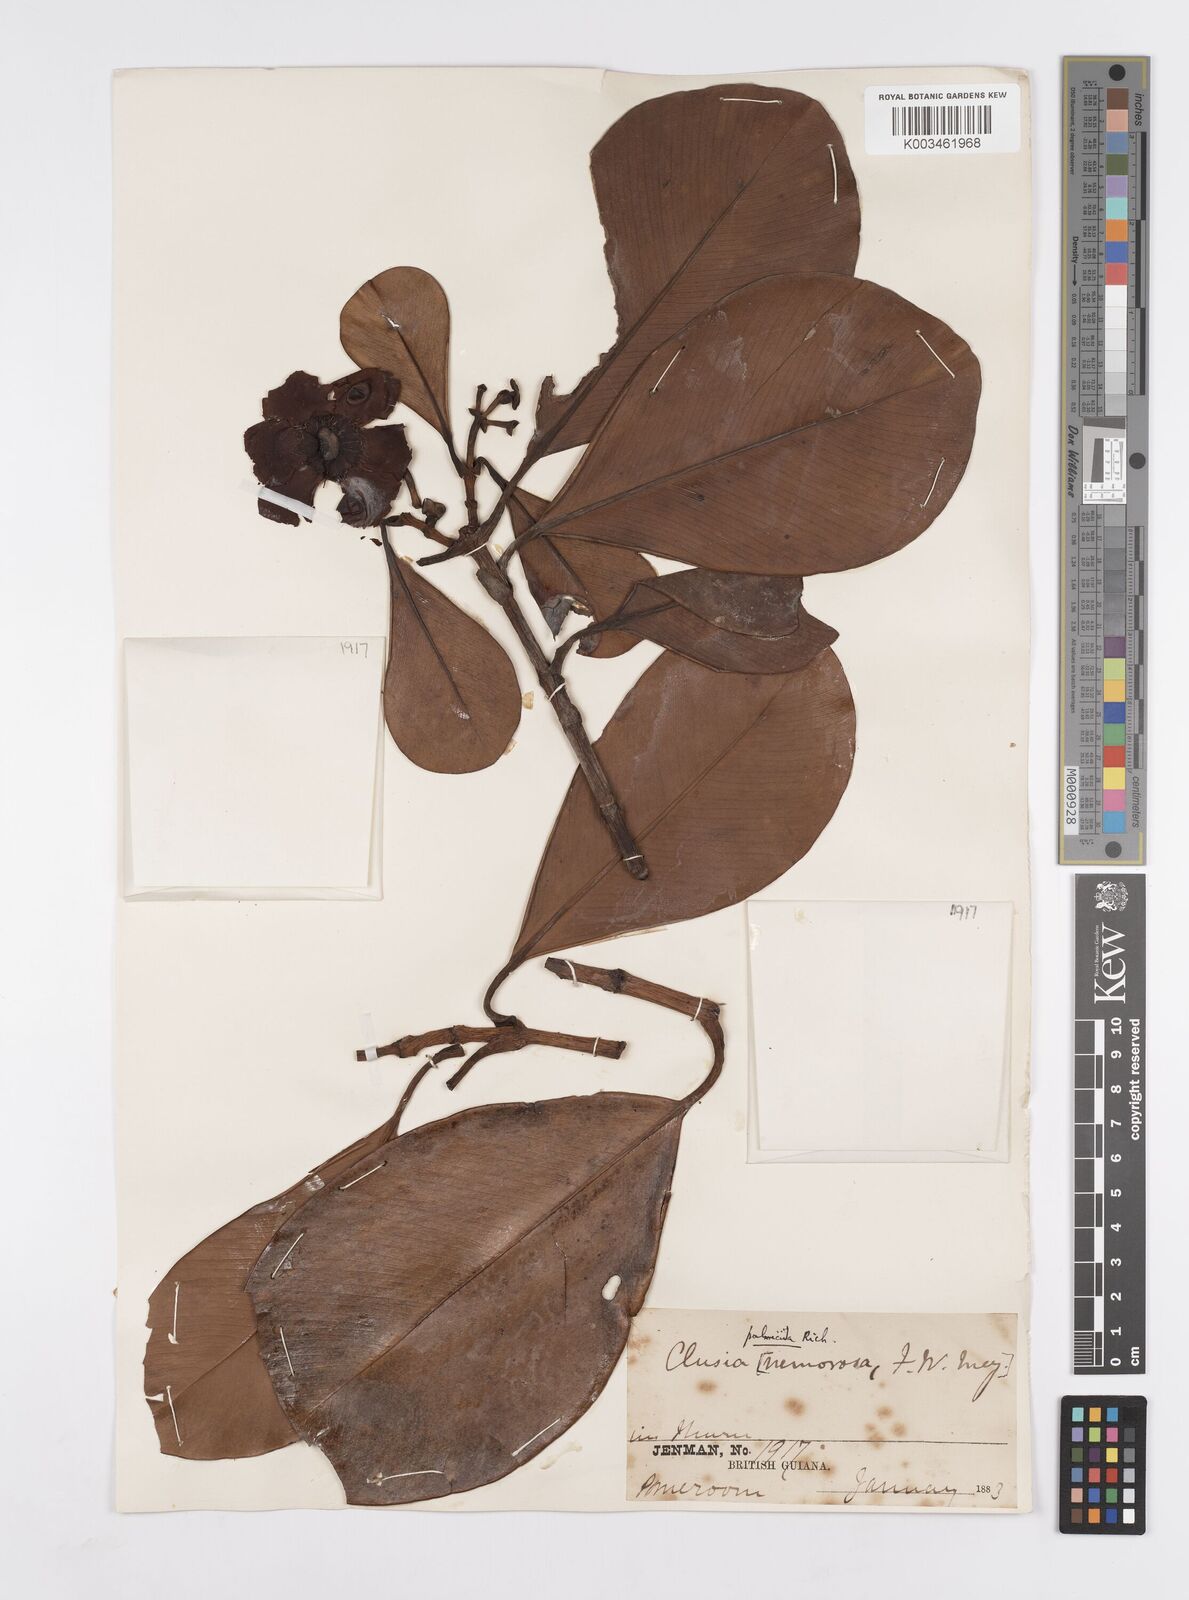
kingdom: Plantae
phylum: Tracheophyta
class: Magnoliopsida
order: Malpighiales
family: Clusiaceae
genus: Clusia
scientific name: Clusia palmicida
